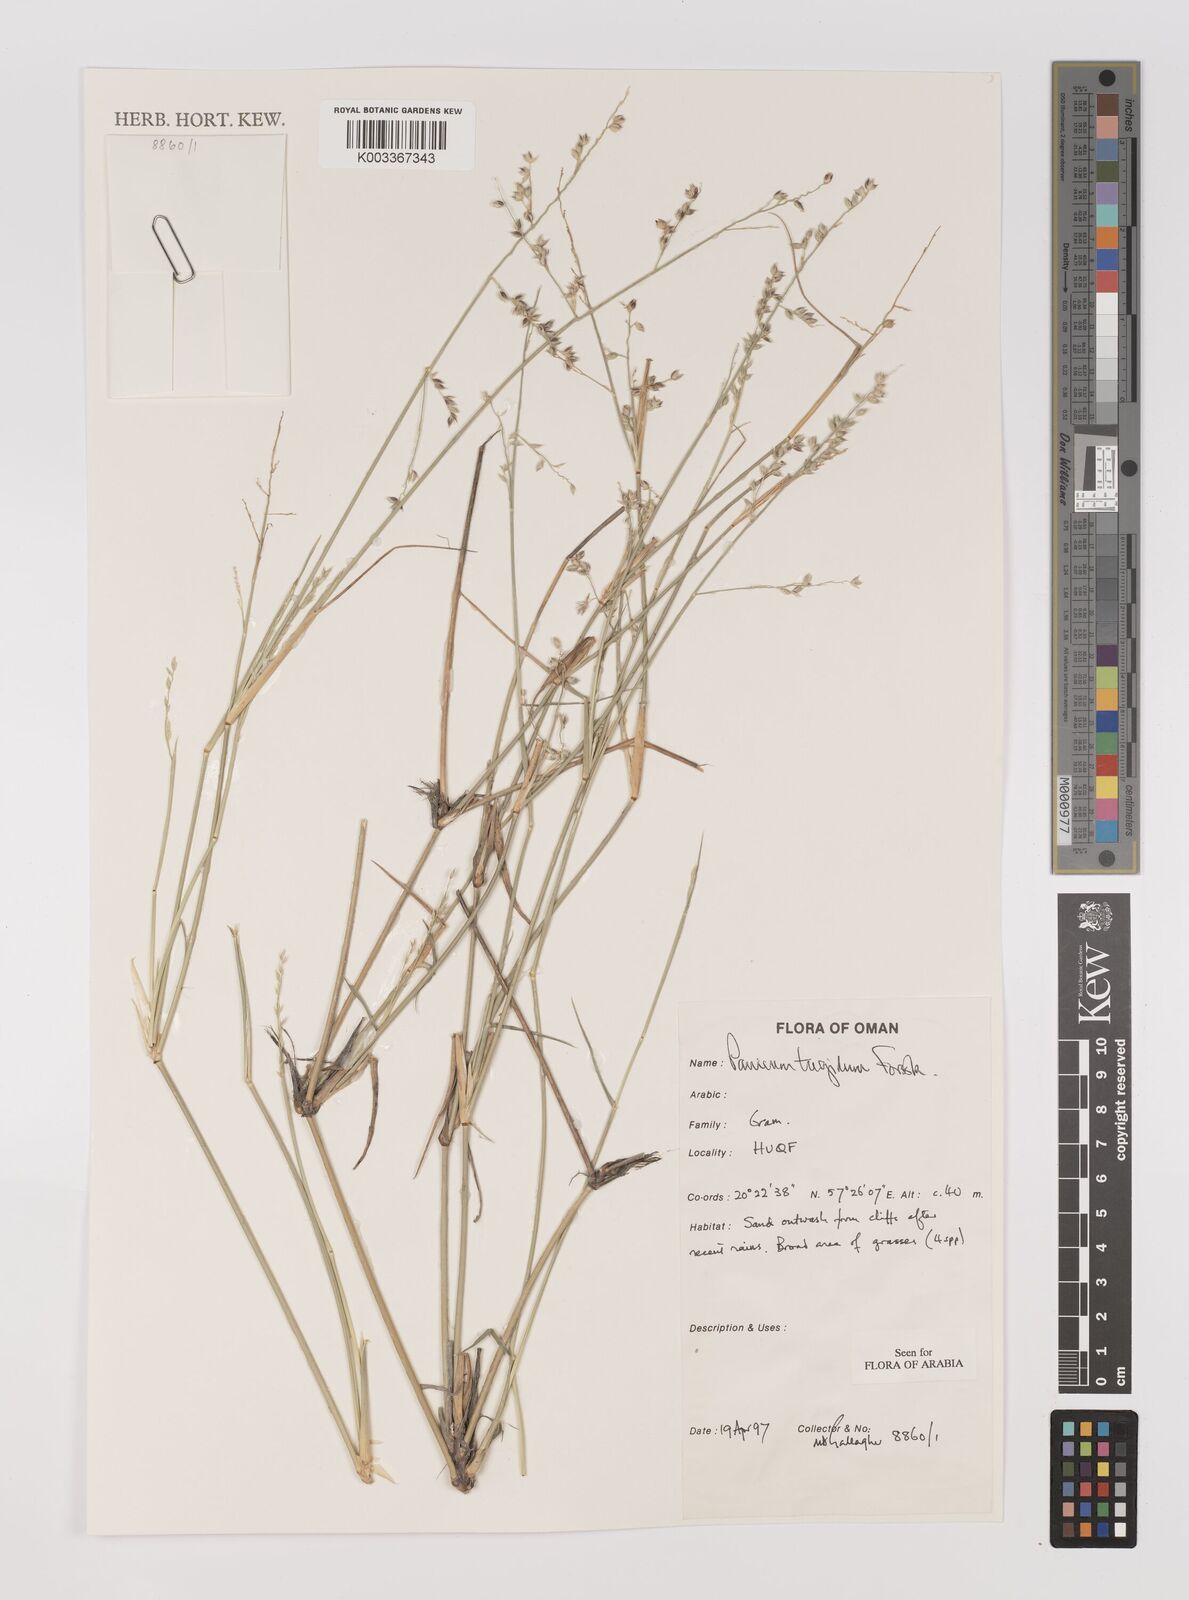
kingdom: Plantae
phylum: Tracheophyta
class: Liliopsida
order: Poales
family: Poaceae
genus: Panicum
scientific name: Panicum turgidum
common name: Desert grass
